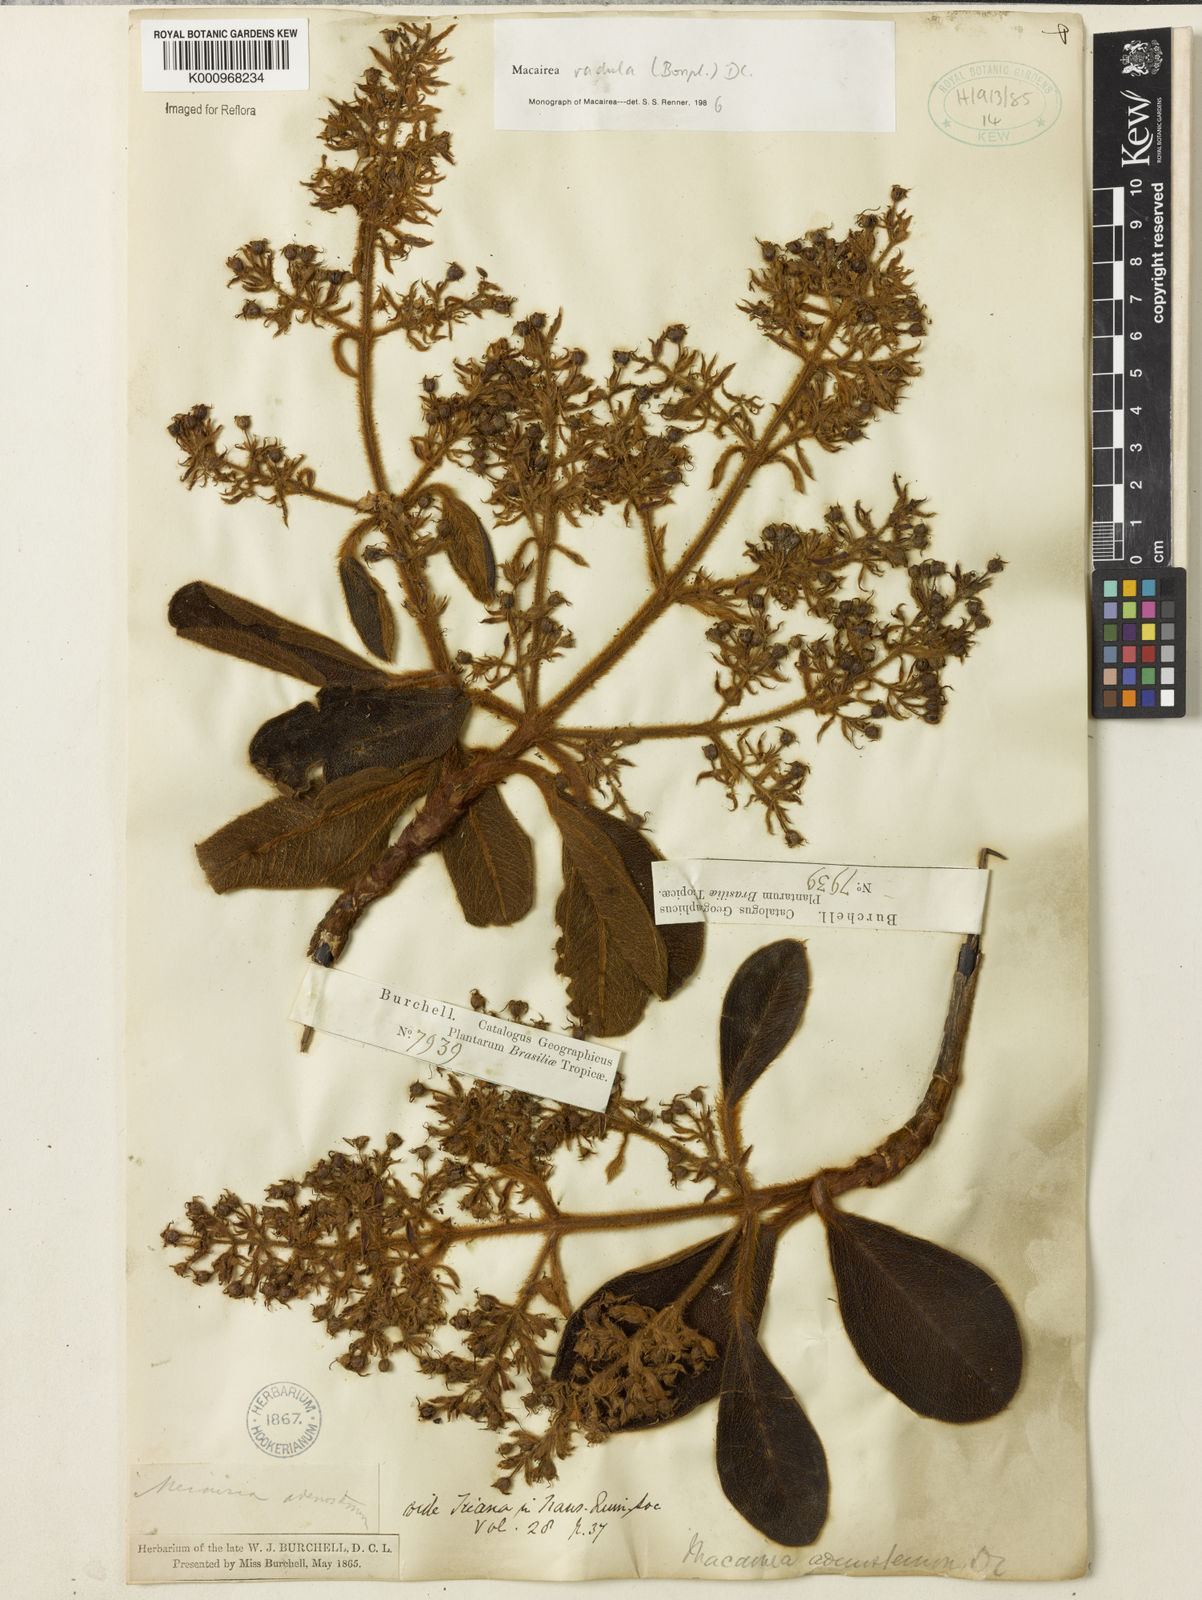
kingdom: Plantae
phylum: Tracheophyta
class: Magnoliopsida
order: Myrtales
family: Melastomataceae
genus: Macairea
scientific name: Macairea radula
